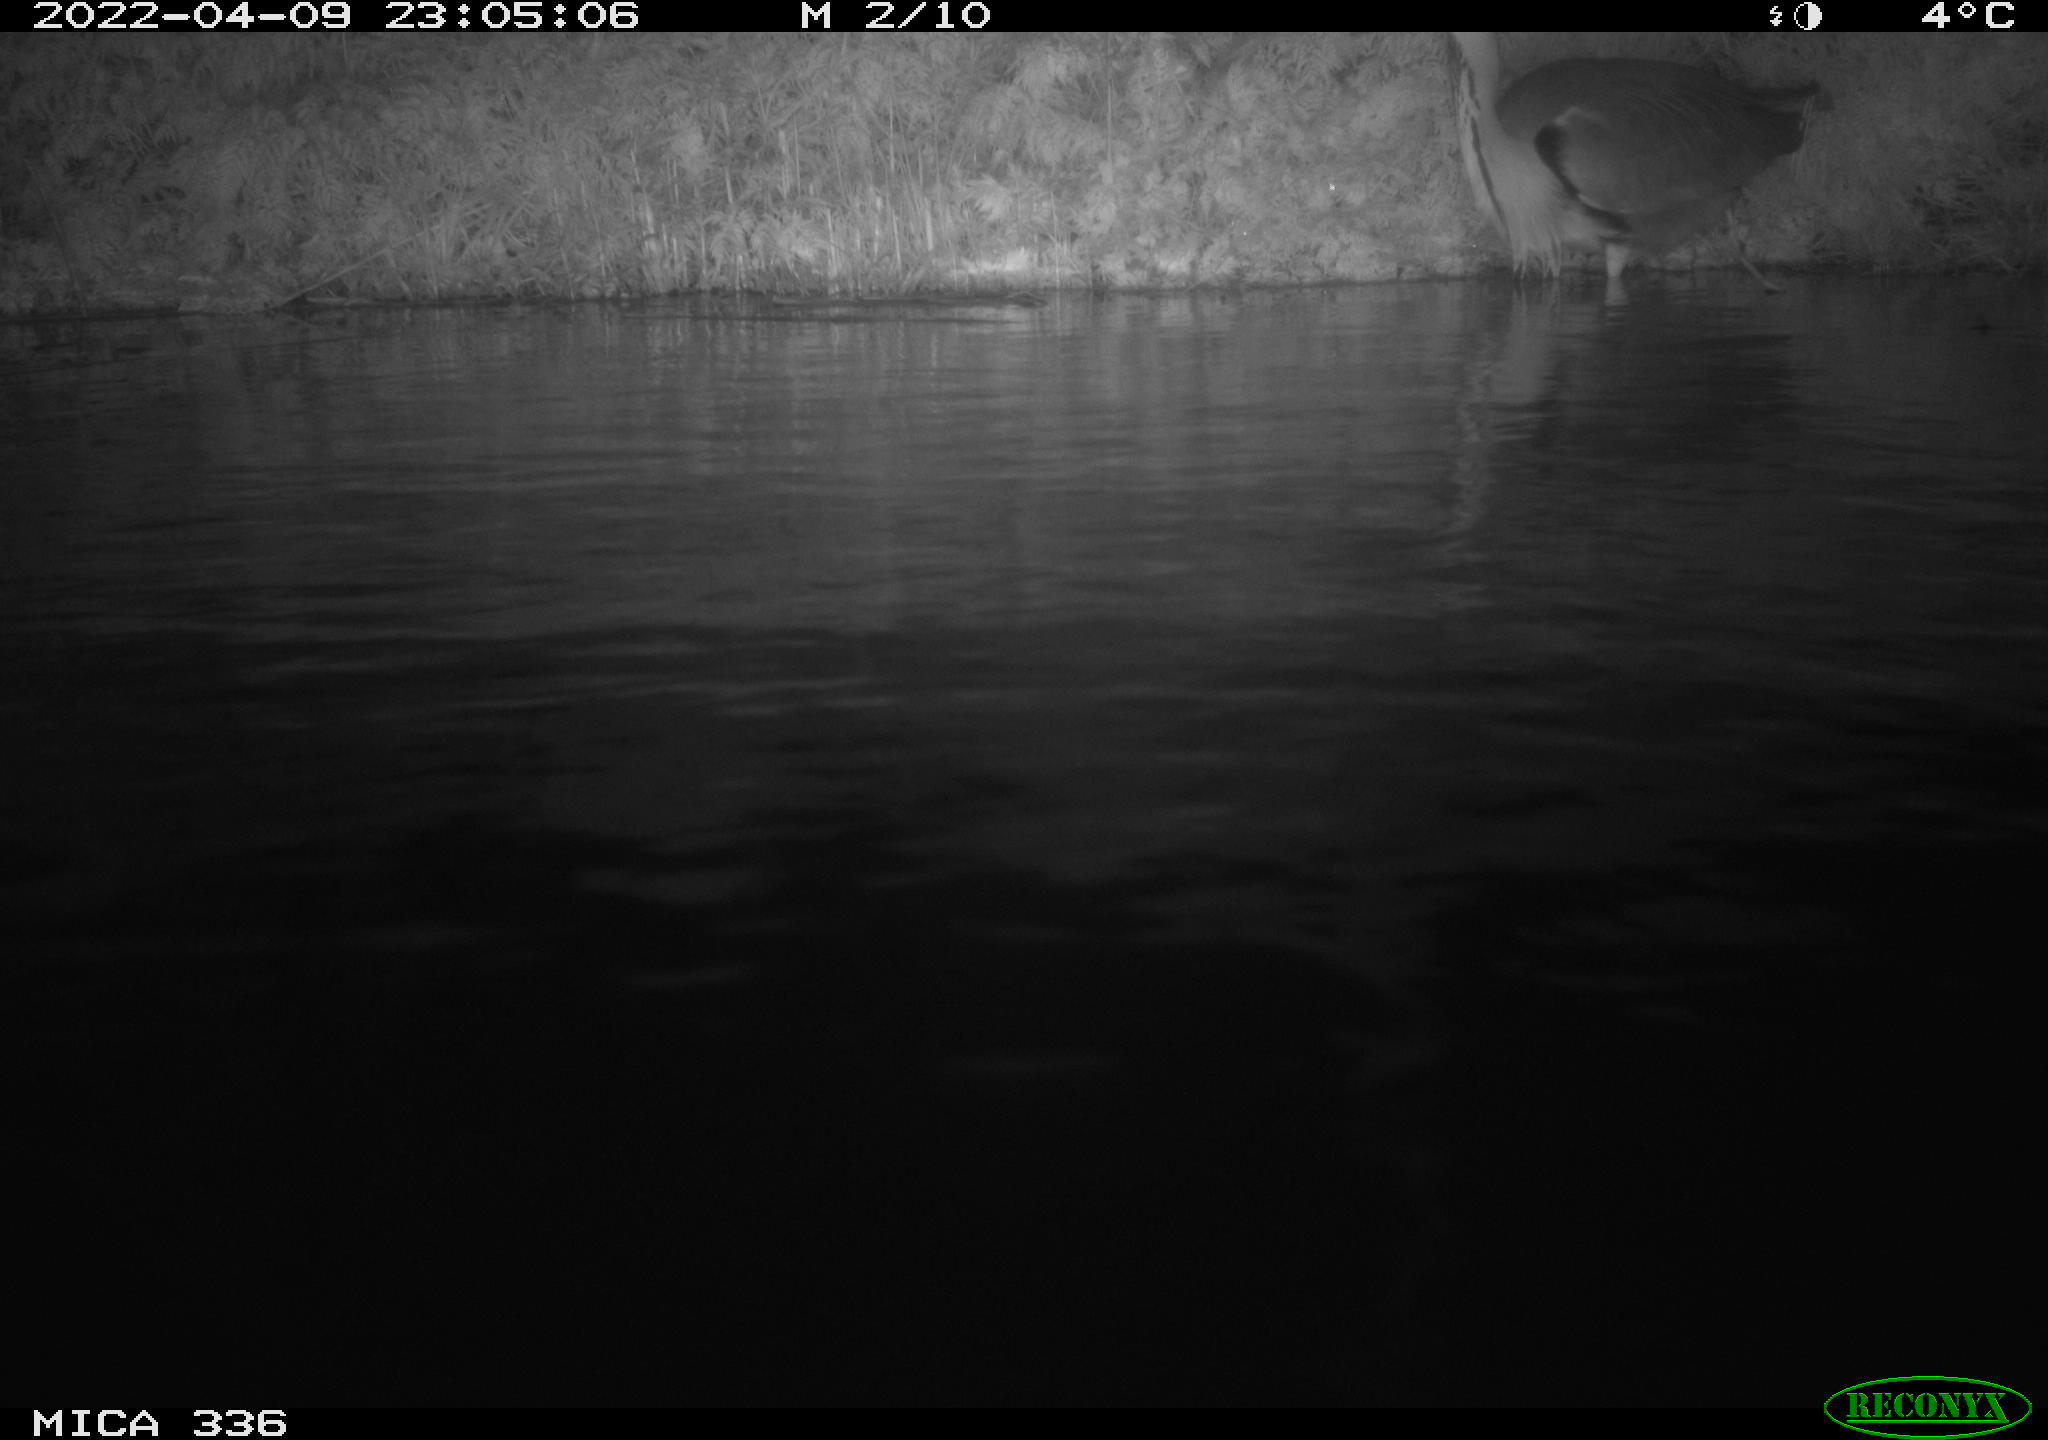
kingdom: Animalia
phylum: Chordata
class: Aves
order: Pelecaniformes
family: Ardeidae
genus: Ardea
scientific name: Ardea cinerea
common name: Grey heron
